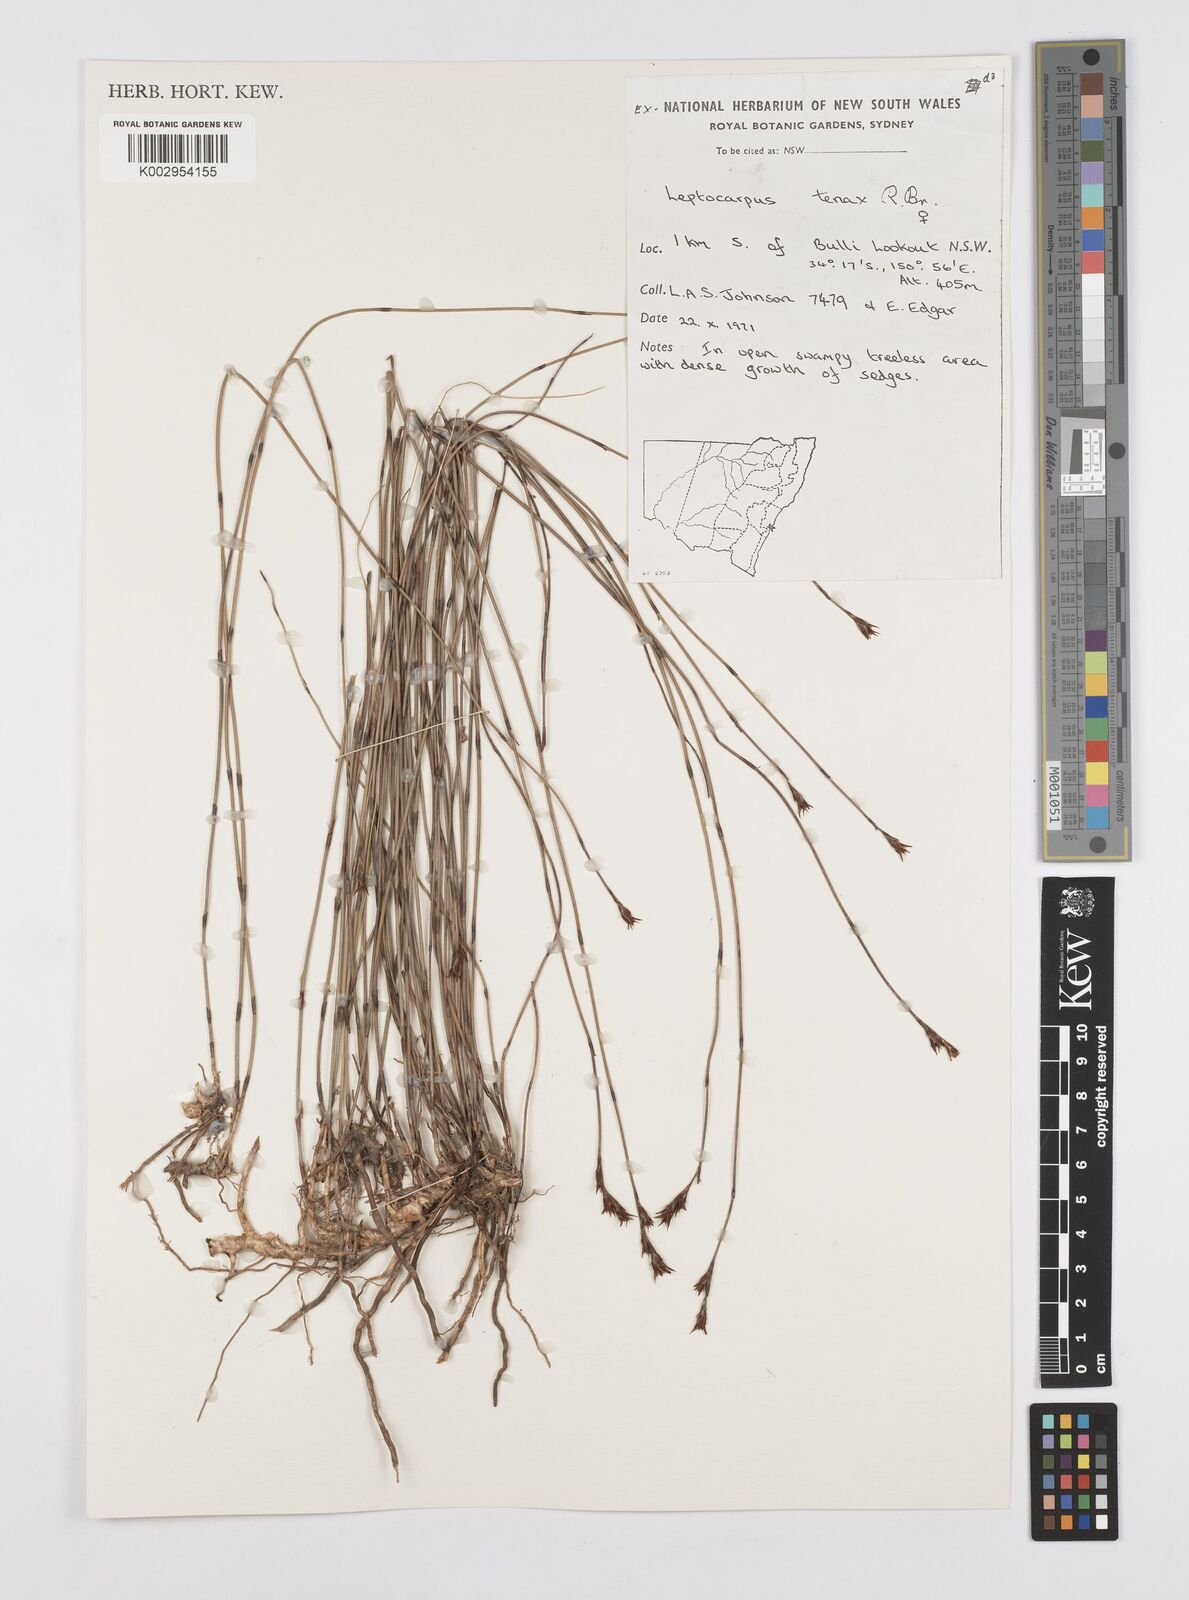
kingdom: Plantae
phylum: Tracheophyta
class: Liliopsida
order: Poales
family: Restionaceae
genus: Leptocarpus
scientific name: Leptocarpus tenax
